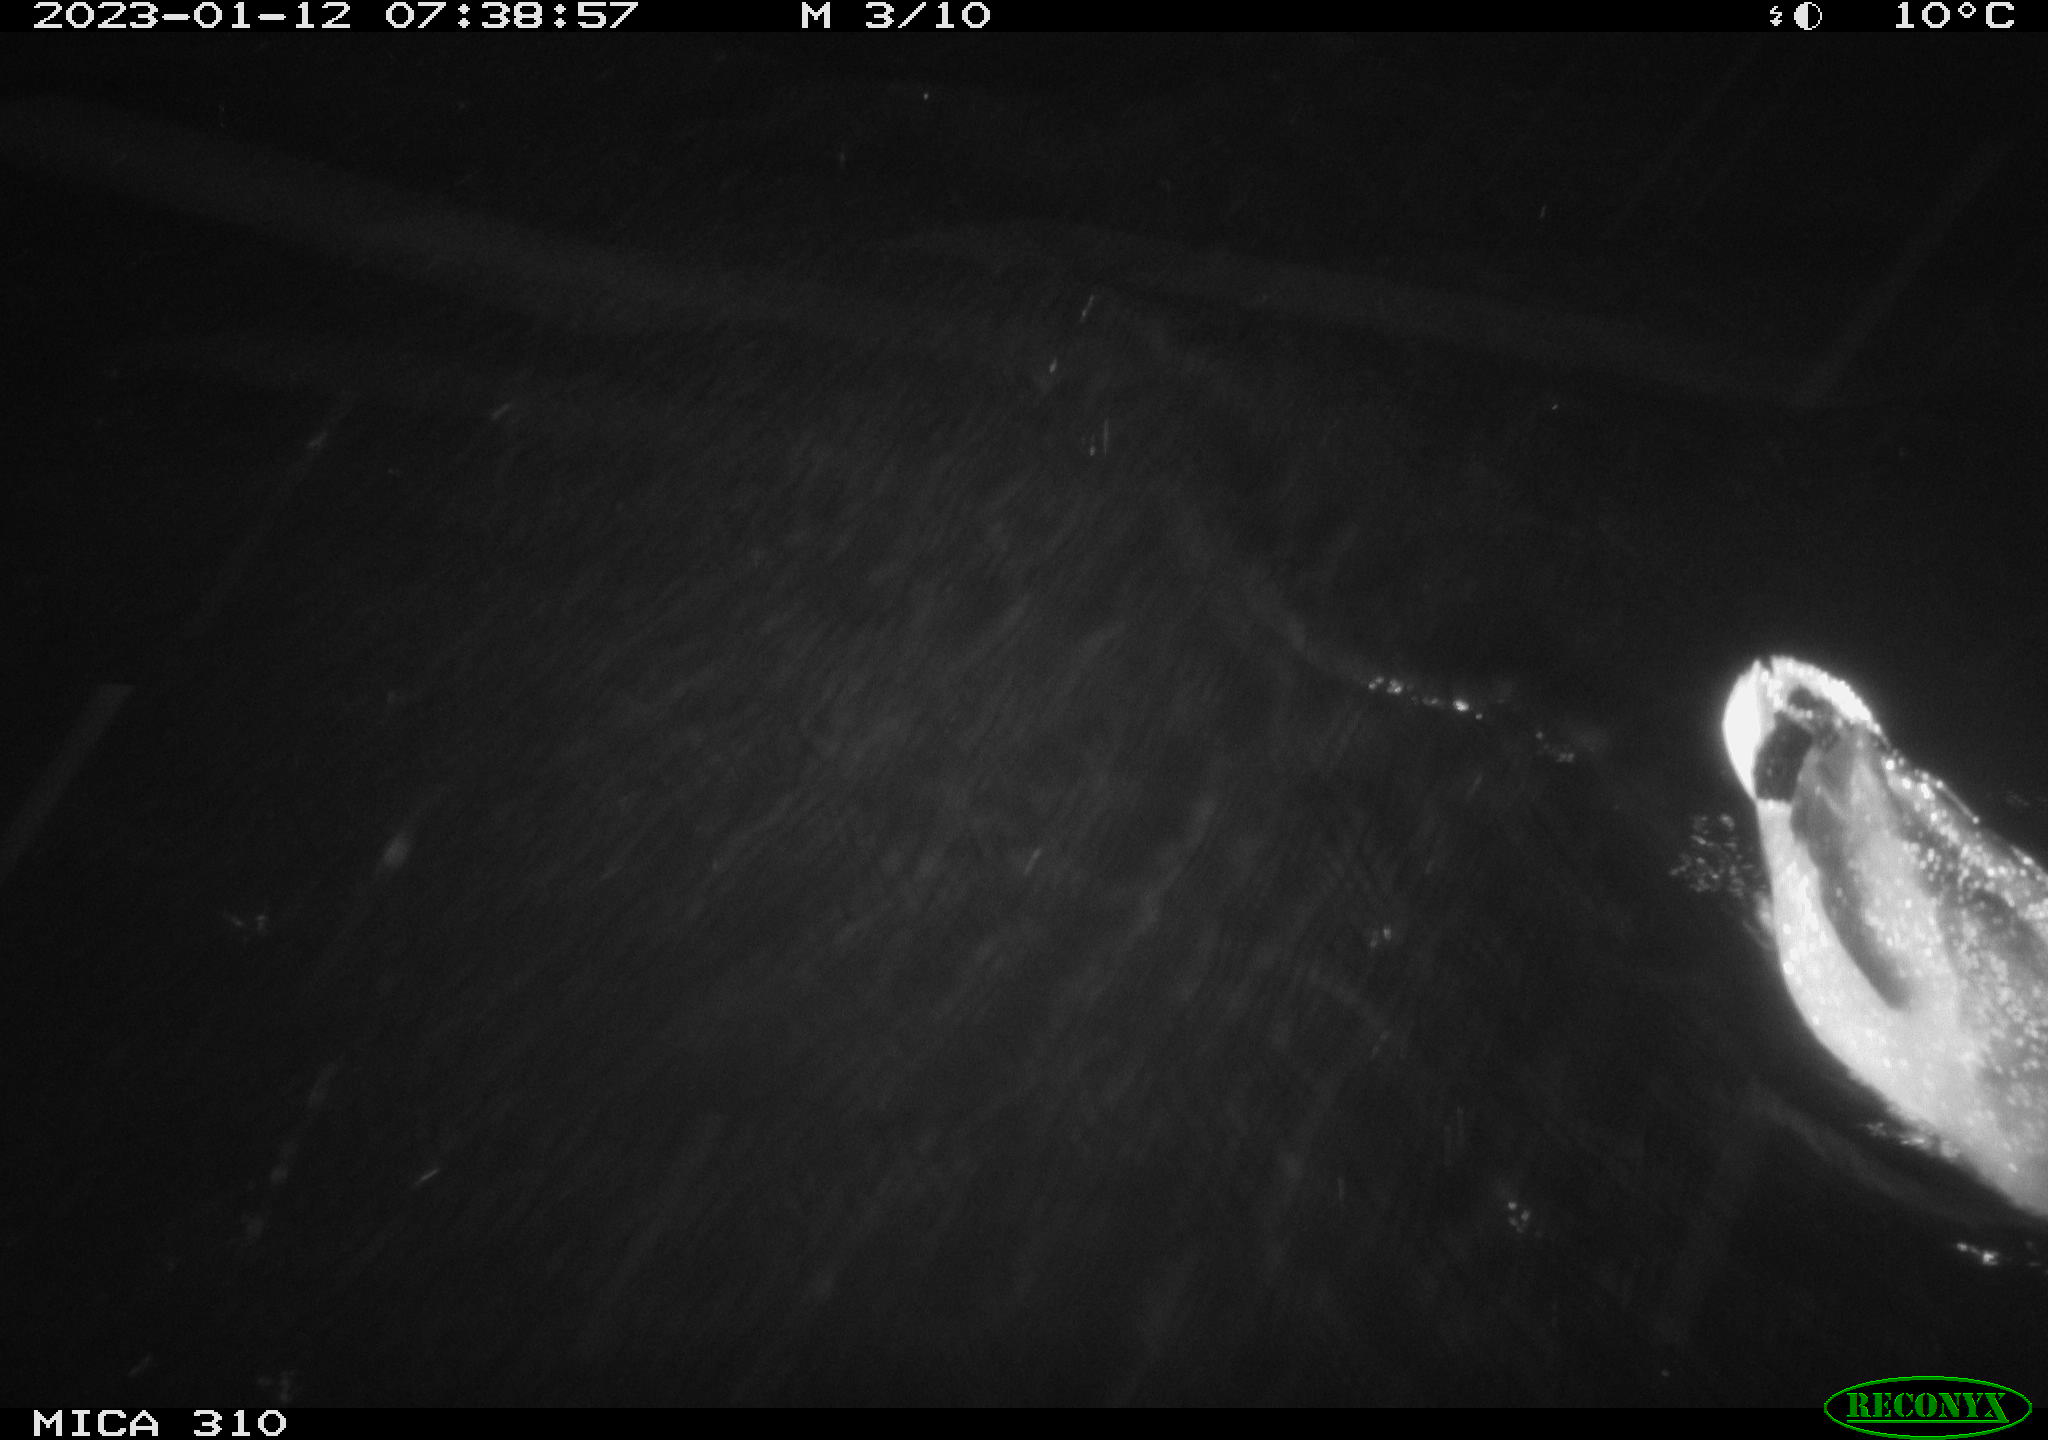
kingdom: Animalia
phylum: Chordata
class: Aves
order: Anseriformes
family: Anatidae
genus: Anas
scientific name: Anas
